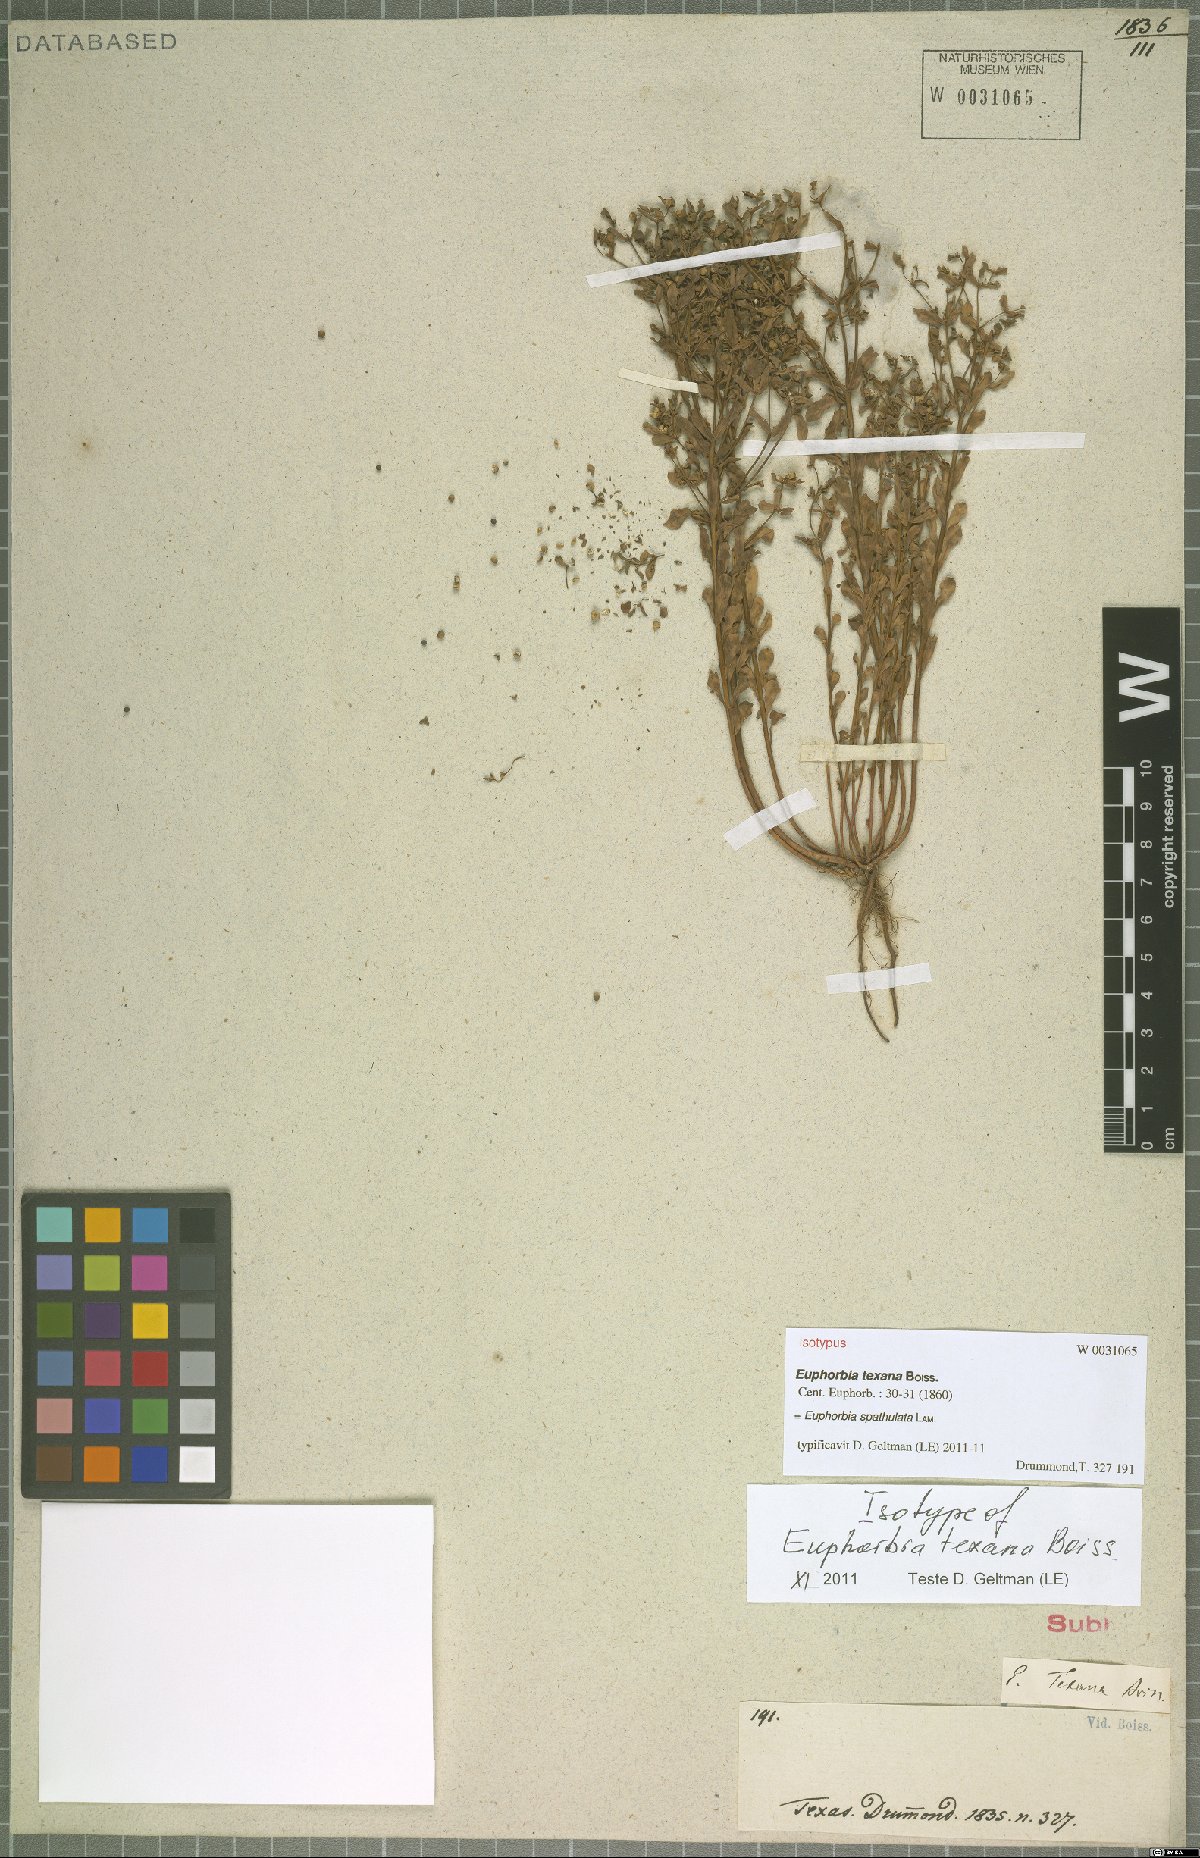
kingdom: Plantae
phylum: Tracheophyta
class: Magnoliopsida
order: Malpighiales
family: Euphorbiaceae
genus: Euphorbia
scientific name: Euphorbia spathulata
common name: Blunt spurge
